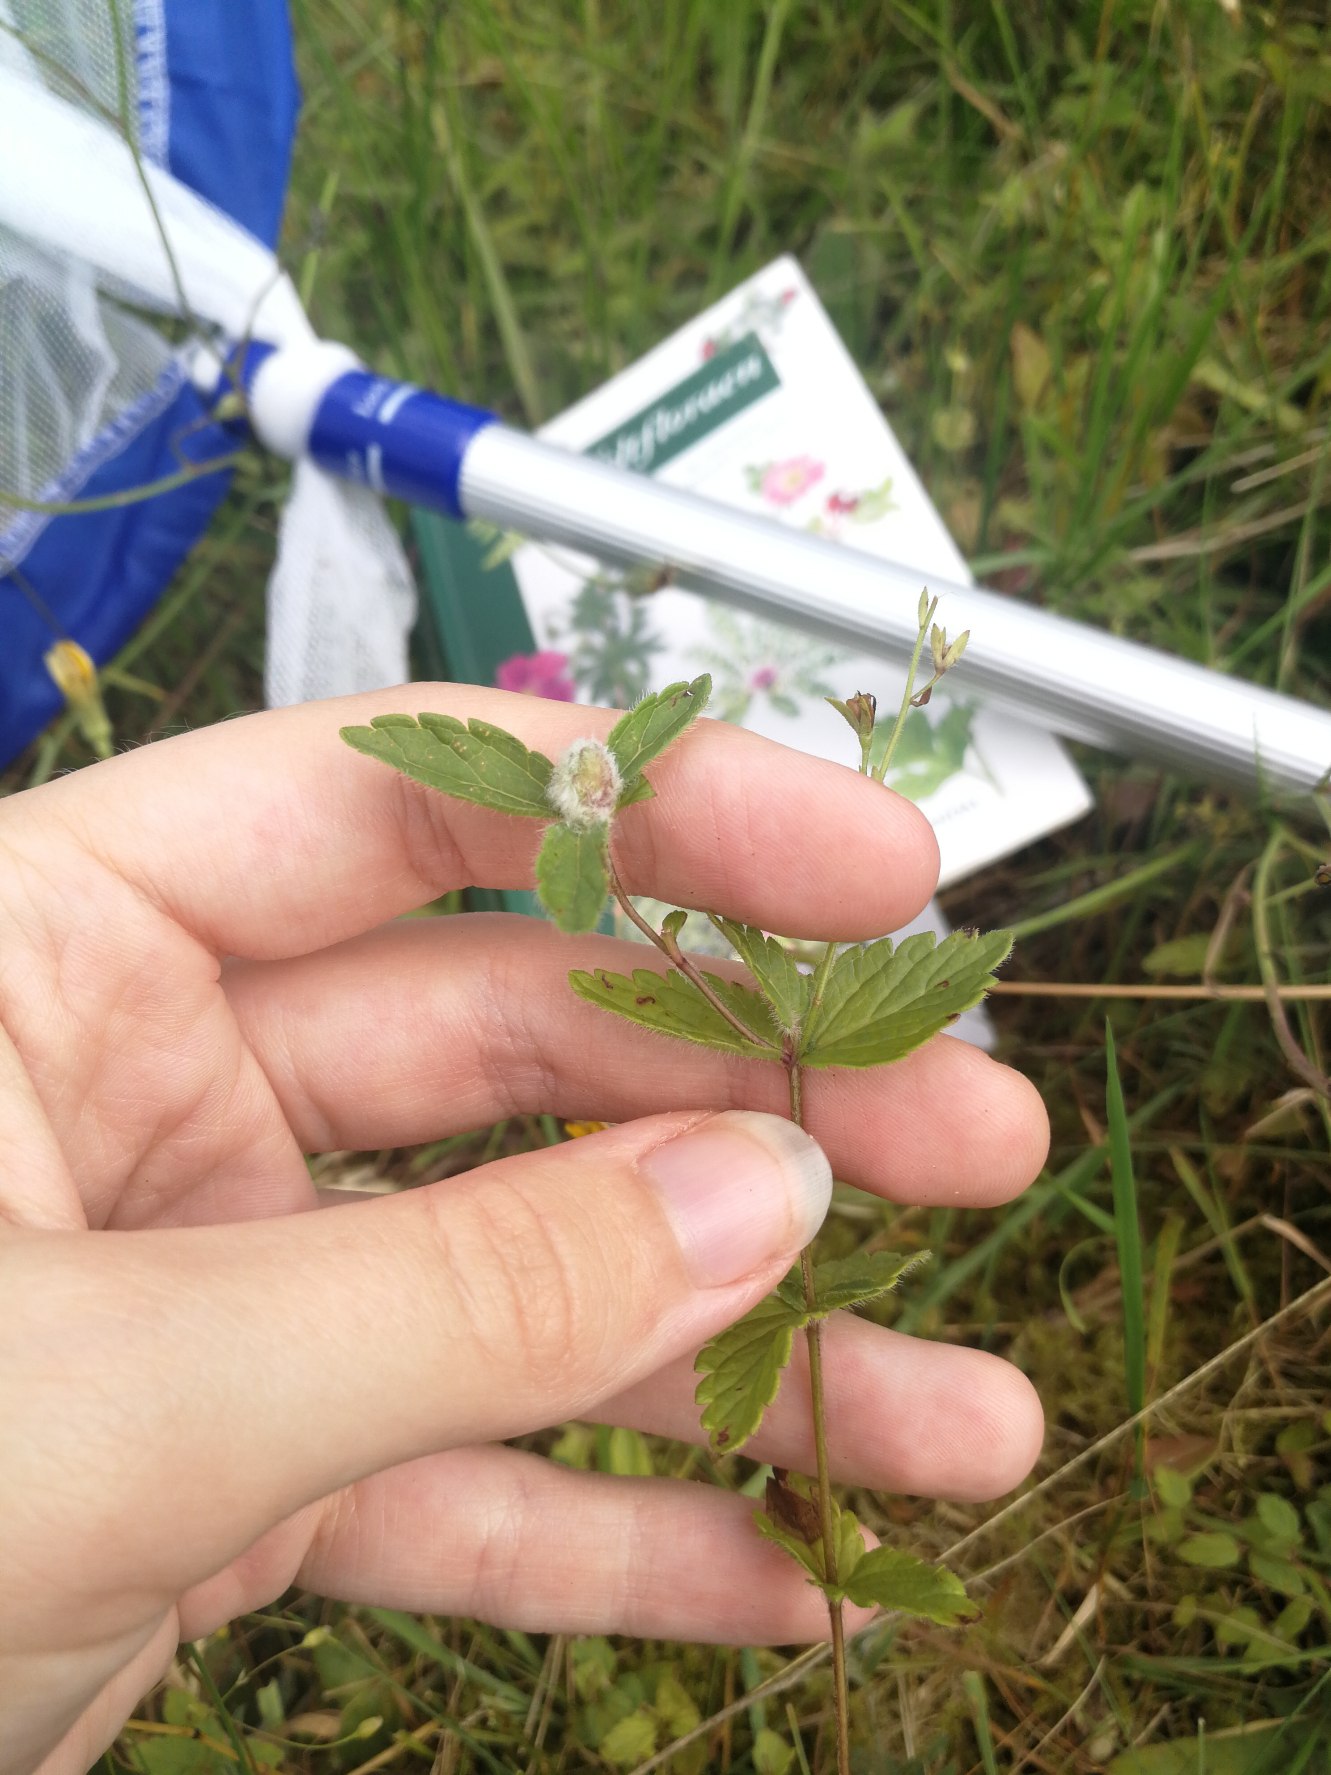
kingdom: Plantae
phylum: Tracheophyta
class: Magnoliopsida
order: Lamiales
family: Plantaginaceae
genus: Veronica
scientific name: Veronica chamaedrys
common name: Tveskægget ærenpris
